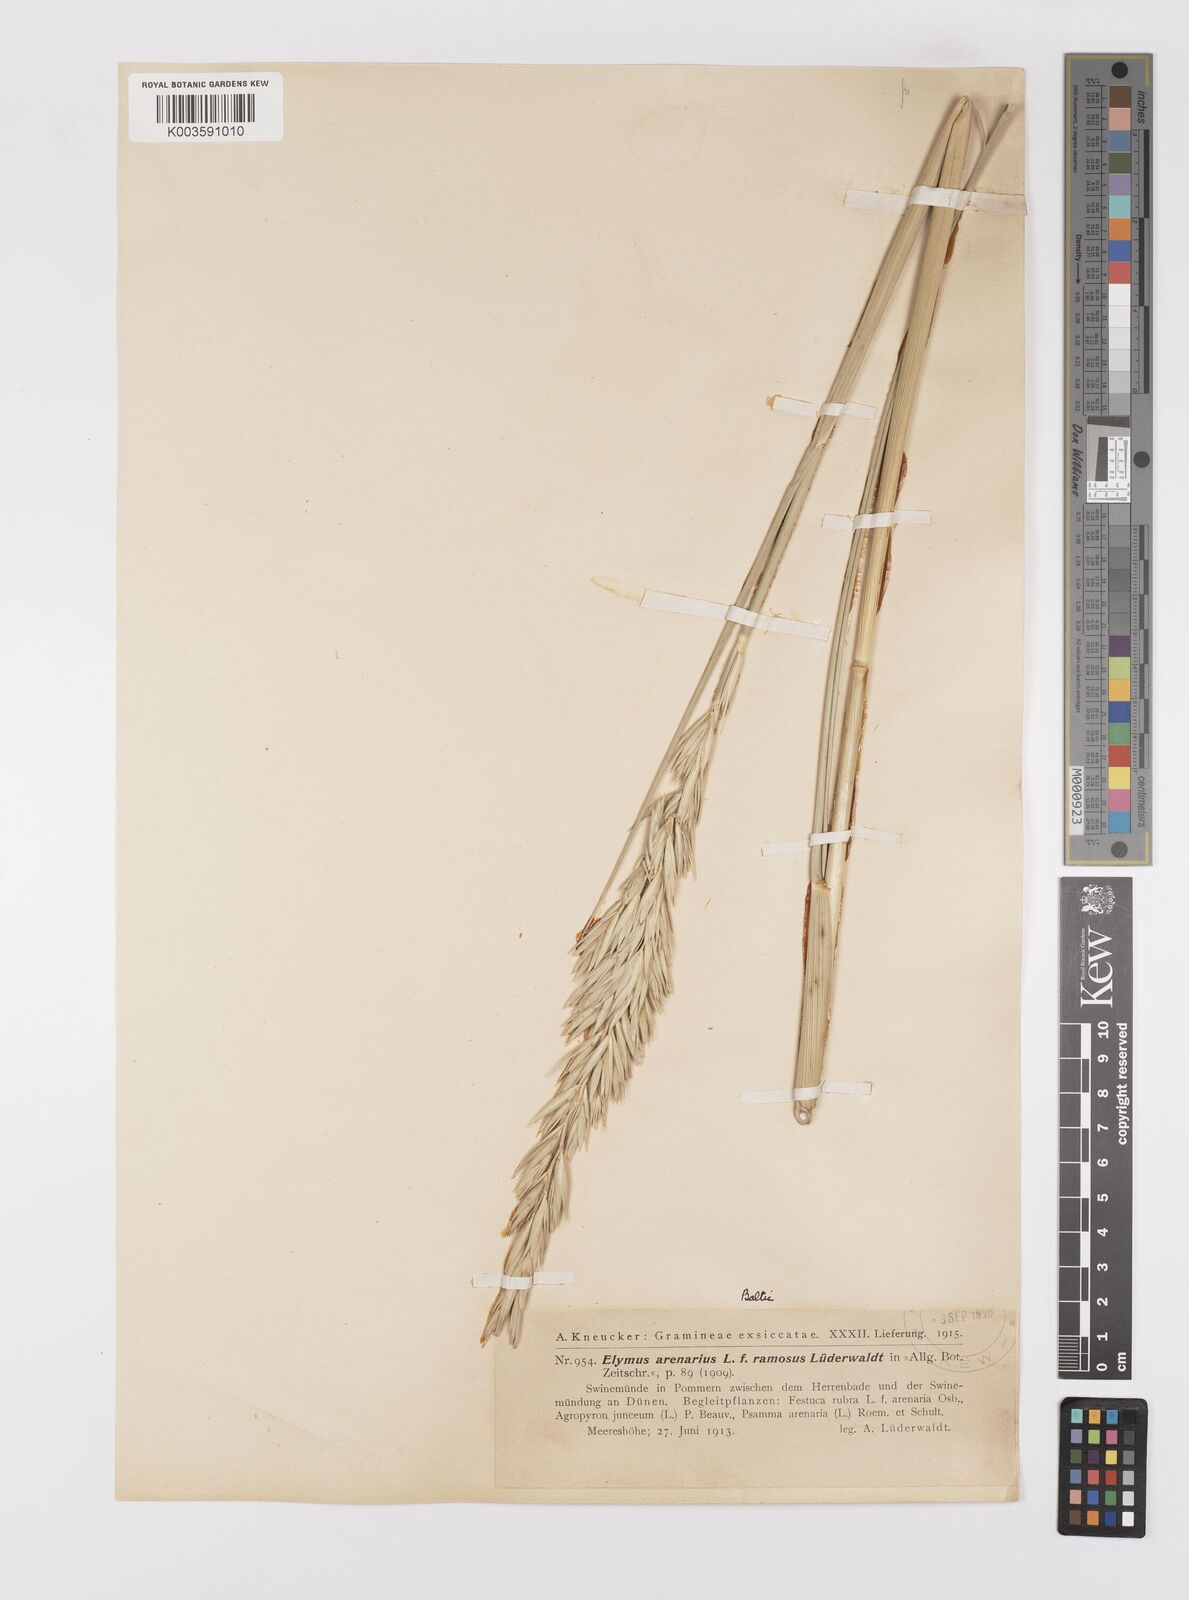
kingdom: Plantae
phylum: Tracheophyta
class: Liliopsida
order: Poales
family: Poaceae
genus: Leymus
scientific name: Leymus arenarius
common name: Lyme-grass
